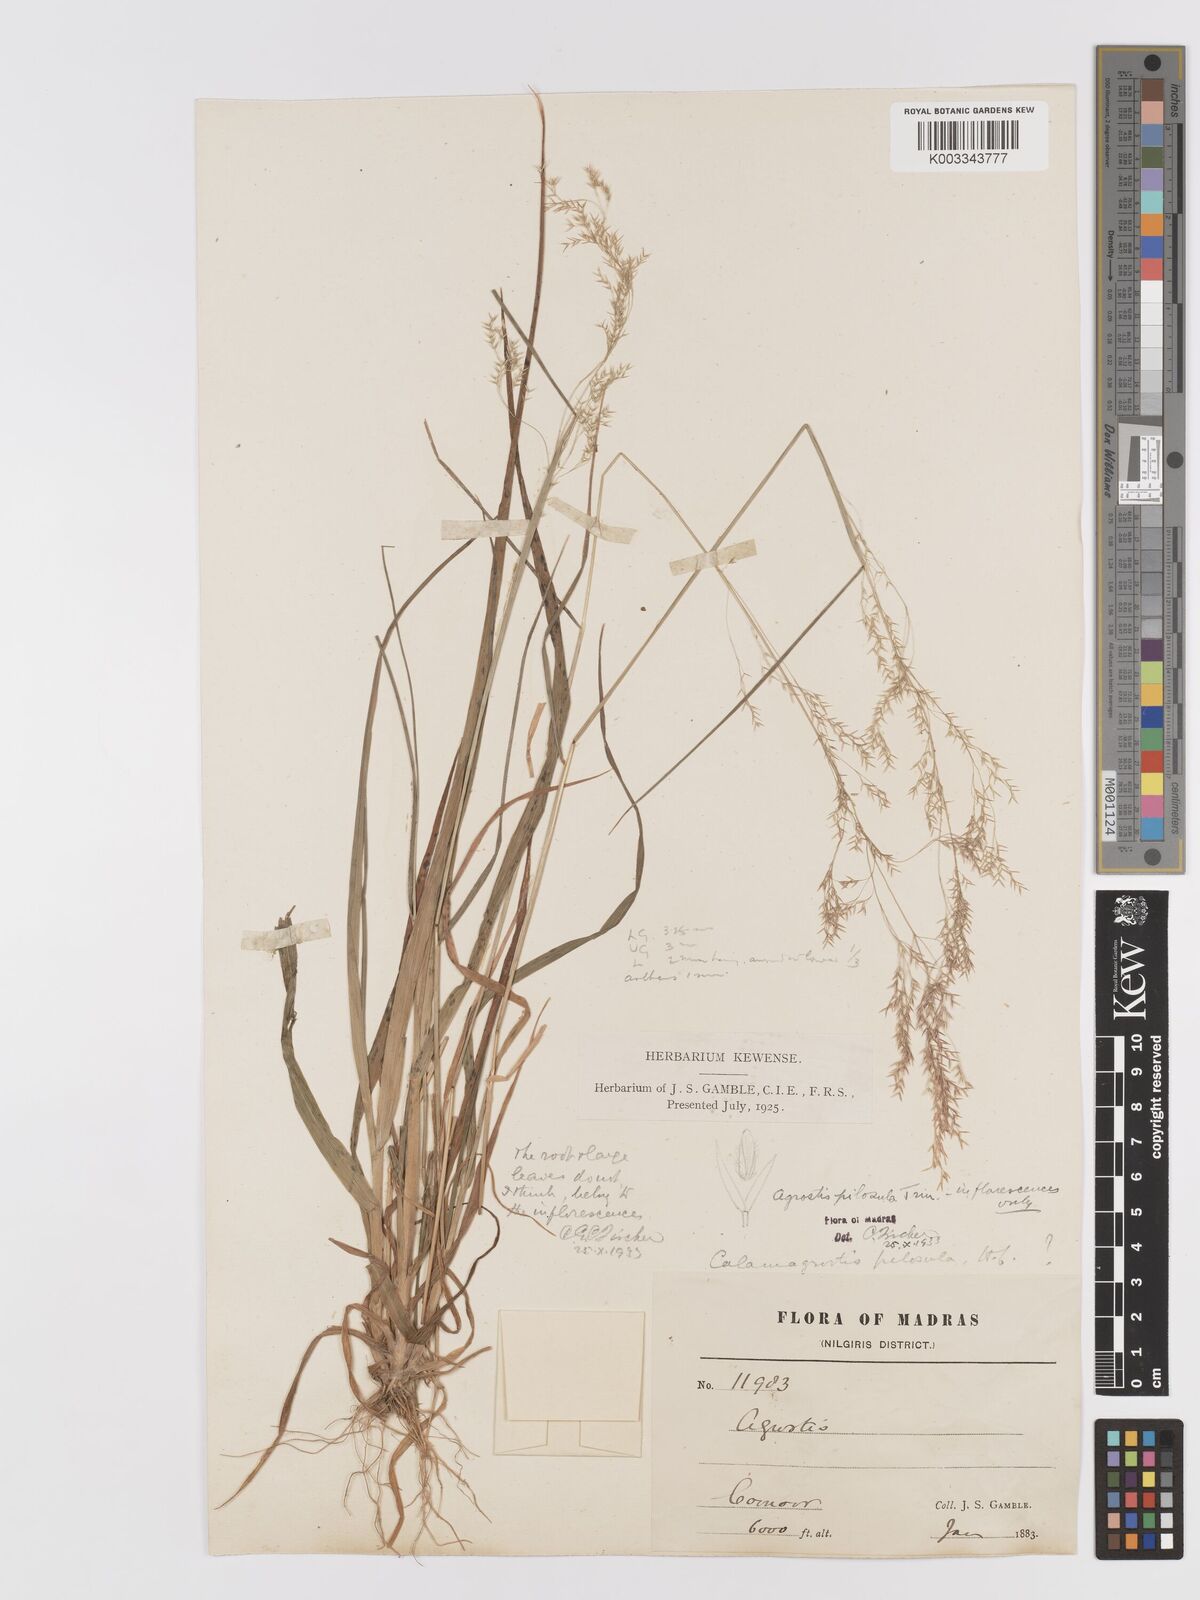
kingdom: Plantae
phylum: Tracheophyta
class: Liliopsida
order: Poales
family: Poaceae
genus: Agrostis
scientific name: Agrostis pilosula
